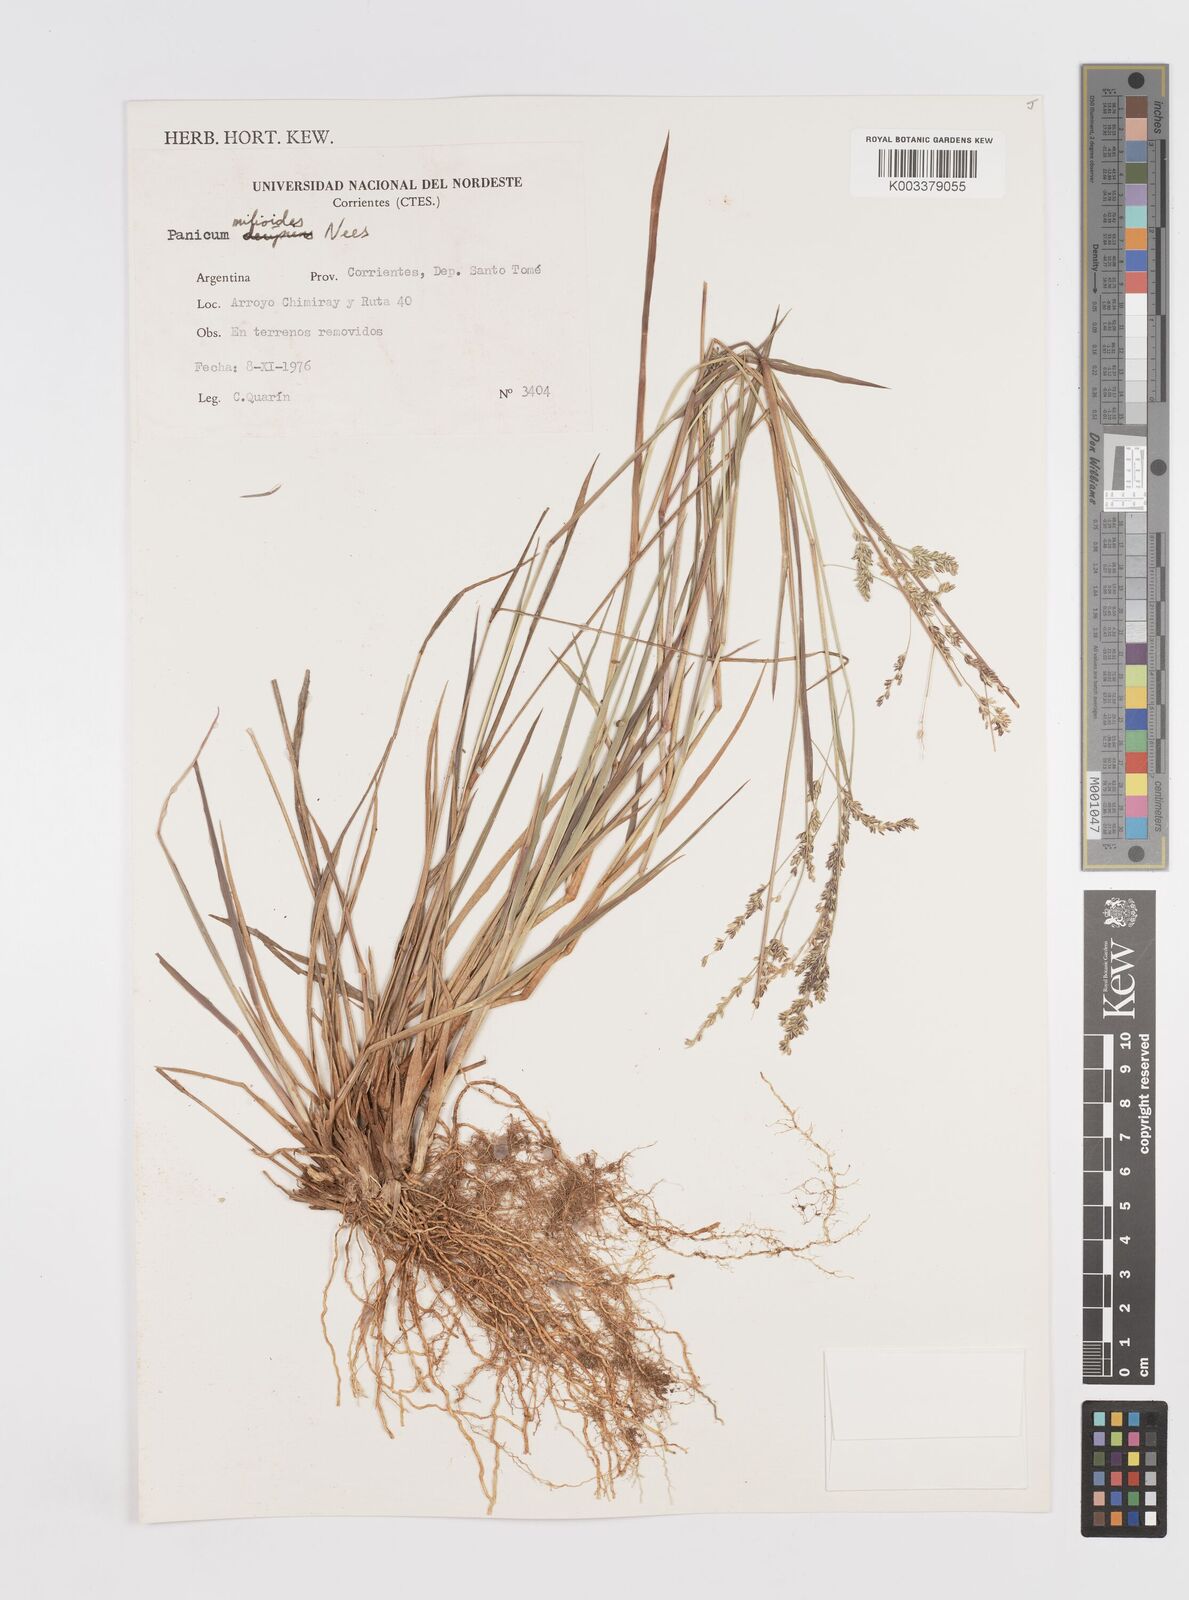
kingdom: Plantae
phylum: Tracheophyta
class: Liliopsida
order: Poales
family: Poaceae
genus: Steinchisma
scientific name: Steinchisma hians
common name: Gaping panic grass
